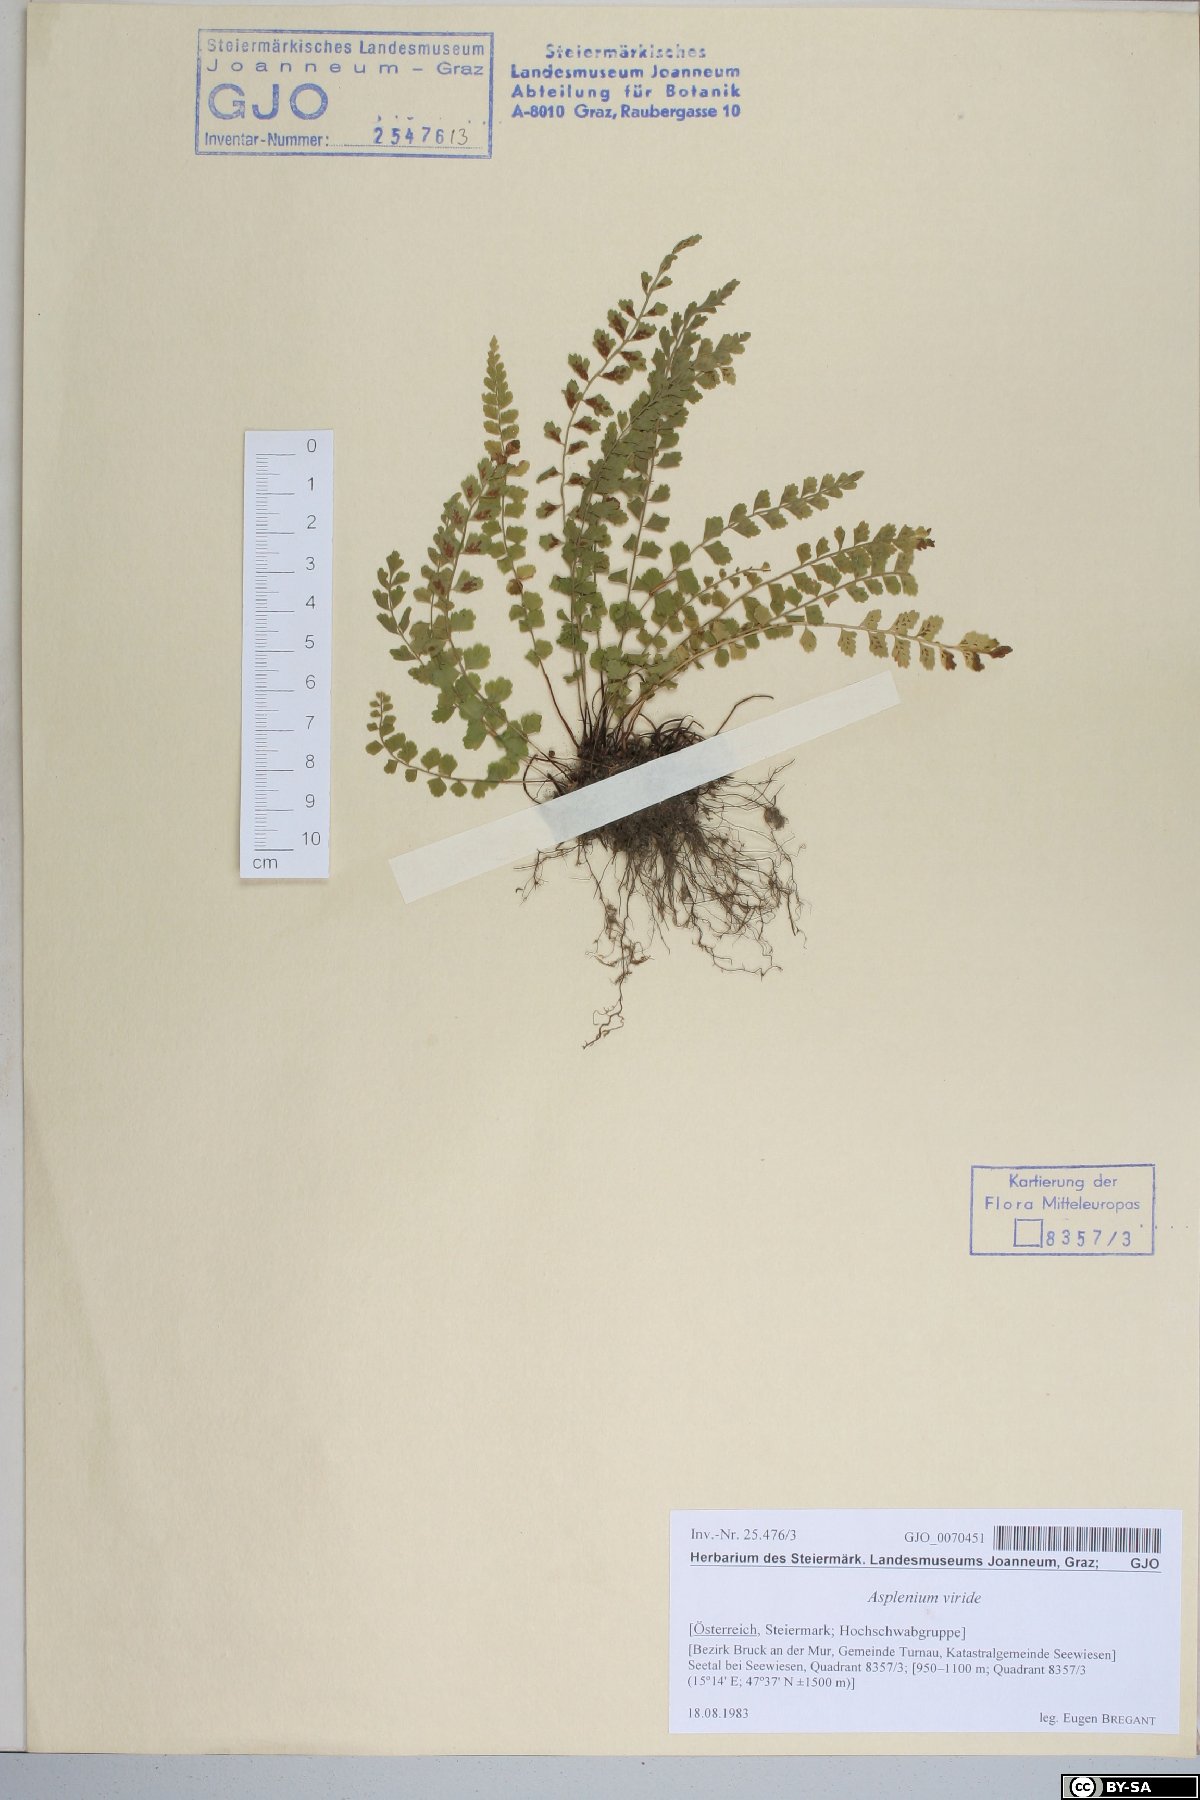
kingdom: Plantae
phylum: Tracheophyta
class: Polypodiopsida
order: Polypodiales
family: Aspleniaceae
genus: Asplenium
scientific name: Asplenium viride
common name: Green spleenwort
